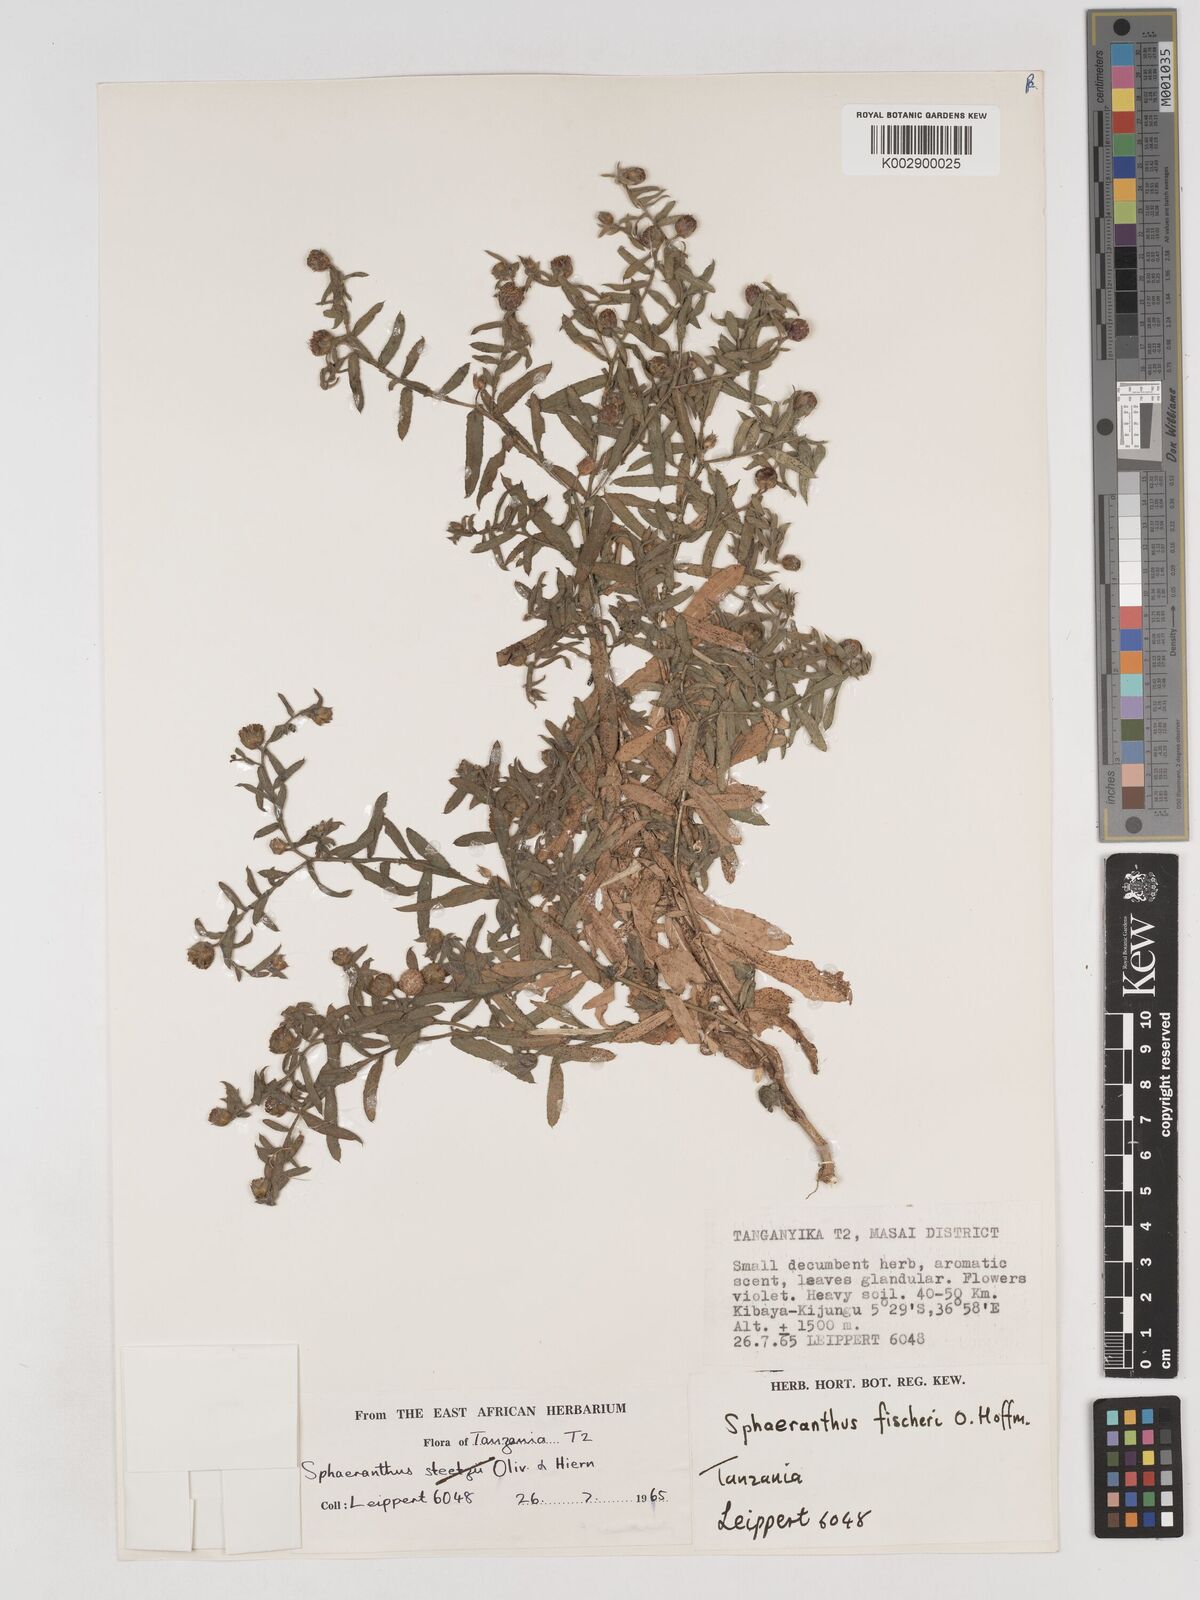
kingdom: Plantae
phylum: Tracheophyta
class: Magnoliopsida
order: Asterales
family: Asteraceae
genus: Sphaeranthus
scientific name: Sphaeranthus fischeri
